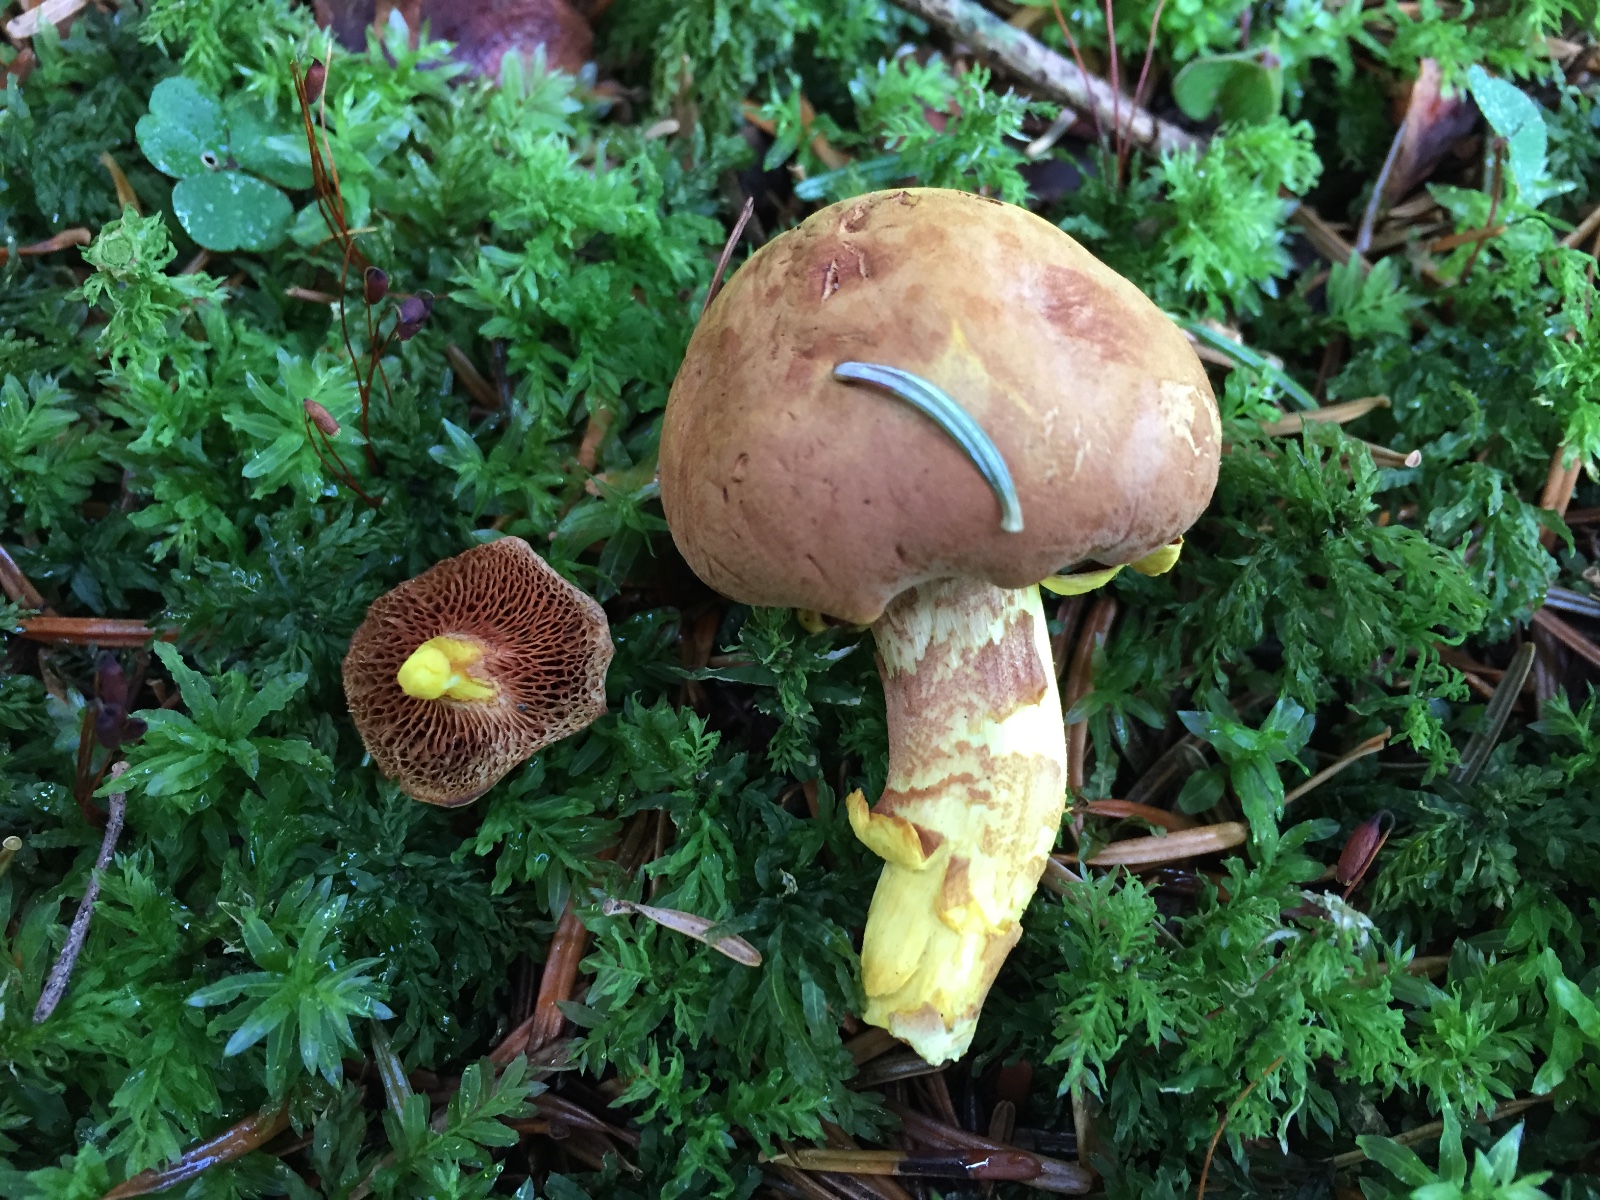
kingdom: Fungi
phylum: Basidiomycota
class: Agaricomycetes
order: Boletales
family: Boletaceae
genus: Chalciporus
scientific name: Chalciporus piperatus
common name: peberrørhat
